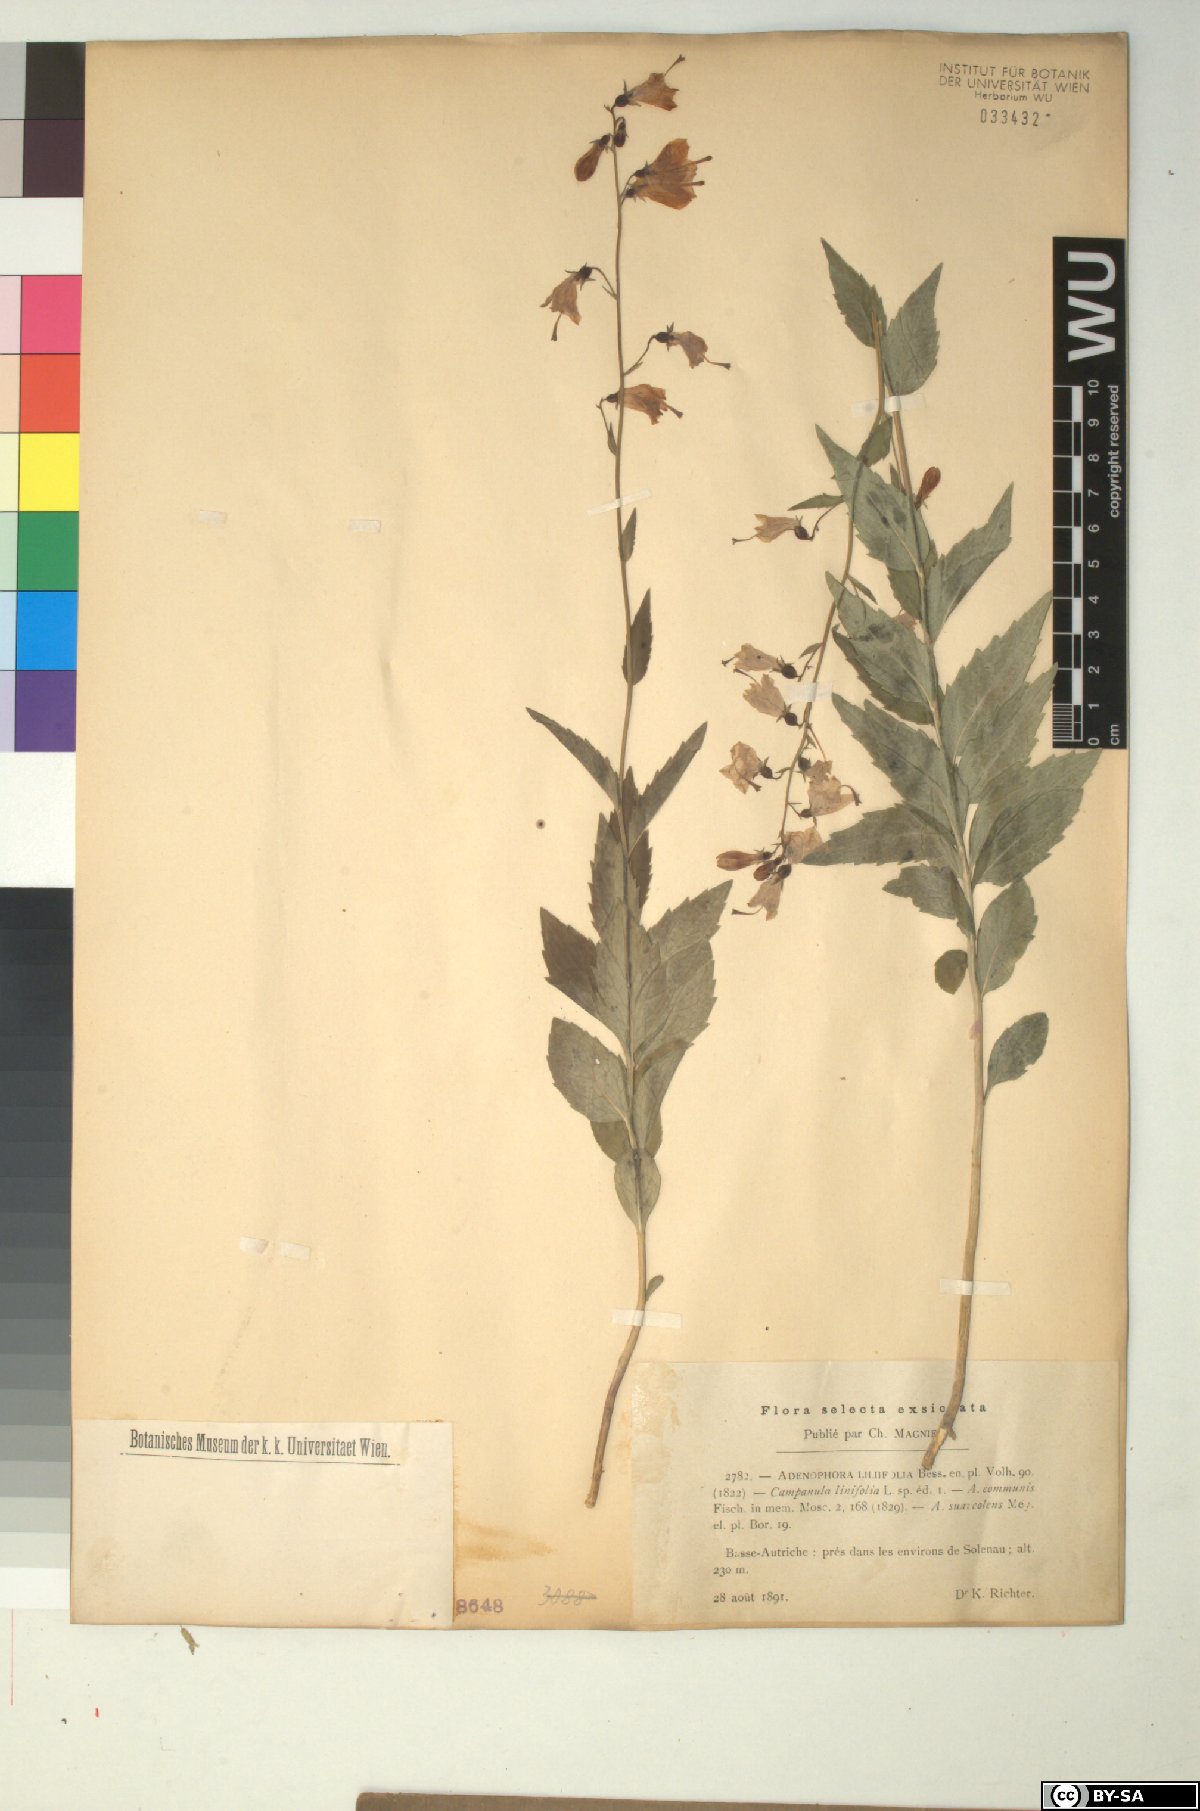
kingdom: Plantae
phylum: Tracheophyta
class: Magnoliopsida
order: Asterales
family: Campanulaceae
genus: Adenophora
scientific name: Adenophora liliifolia
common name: Lilyleaf ladybells
